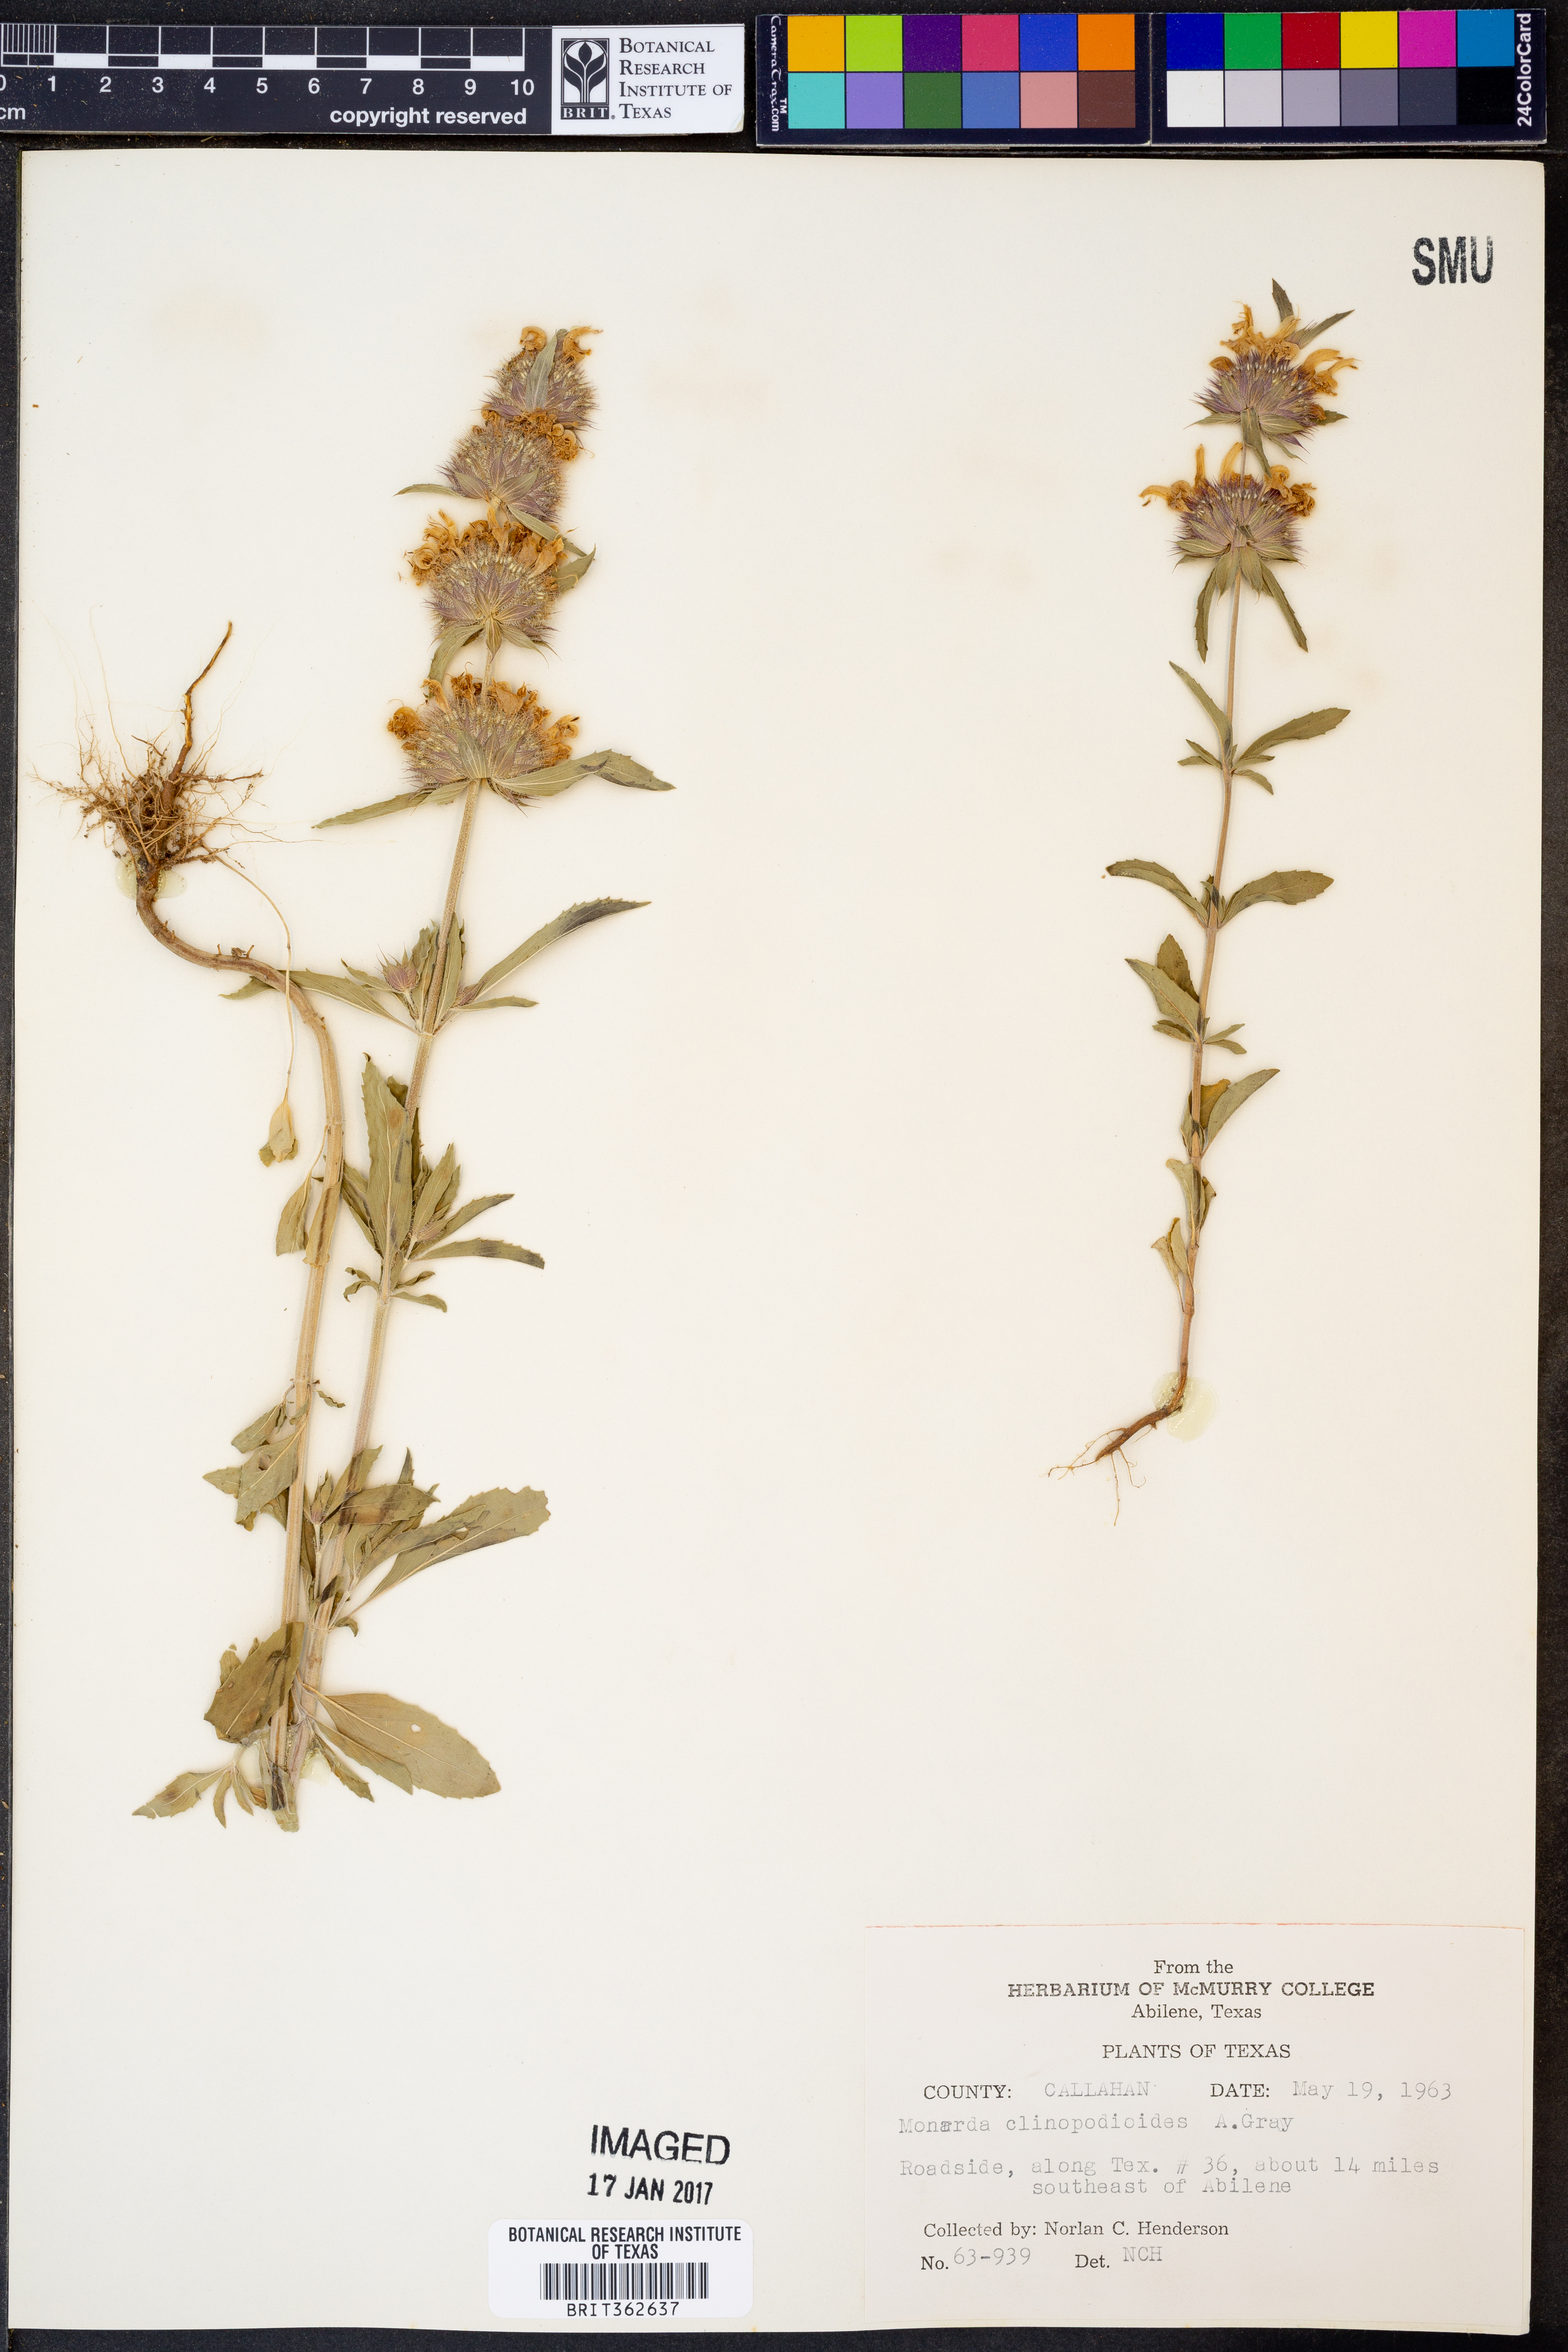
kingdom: Plantae
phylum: Tracheophyta
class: Magnoliopsida
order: Lamiales
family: Lamiaceae
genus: Monarda
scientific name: Monarda clinopodioides
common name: Basil beebalm
